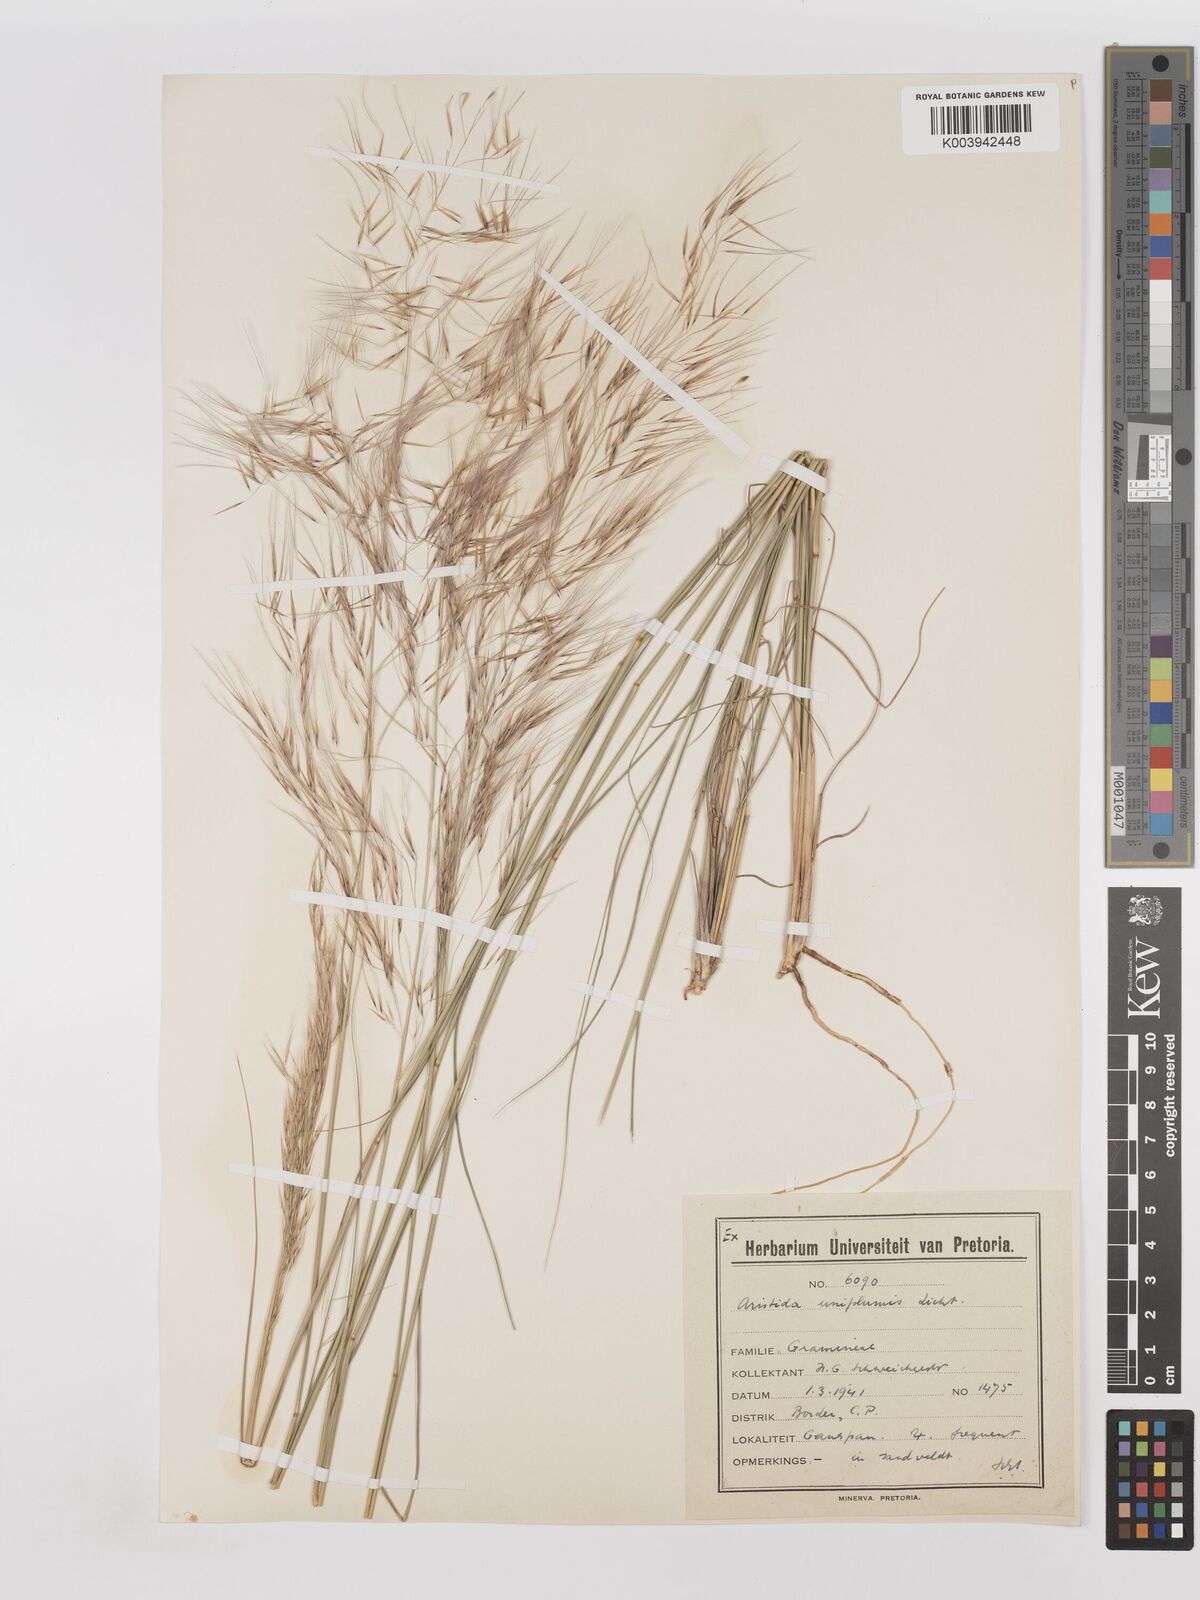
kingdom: Plantae
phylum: Tracheophyta
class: Liliopsida
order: Poales
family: Poaceae
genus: Stipagrostis
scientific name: Stipagrostis uniplumis
